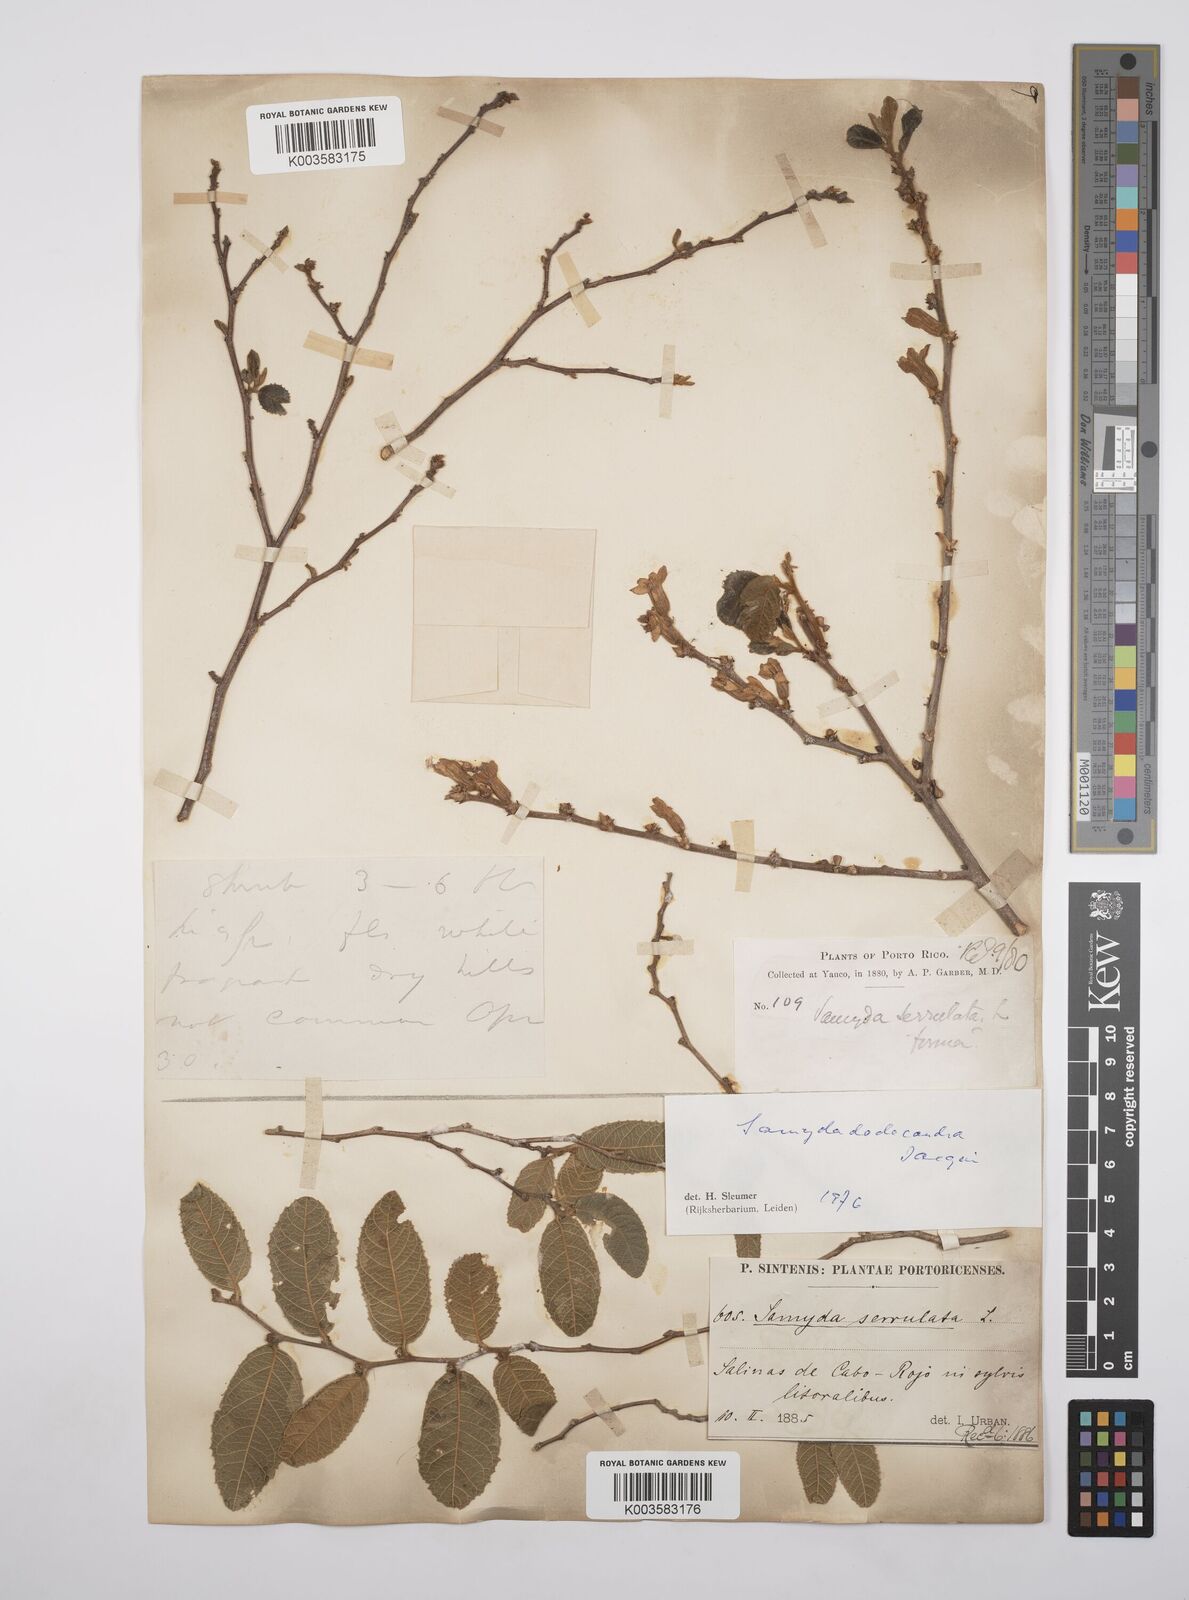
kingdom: Plantae
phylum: Tracheophyta
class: Magnoliopsida
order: Malpighiales
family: Salicaceae
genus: Casearia
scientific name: Casearia dodecandra
